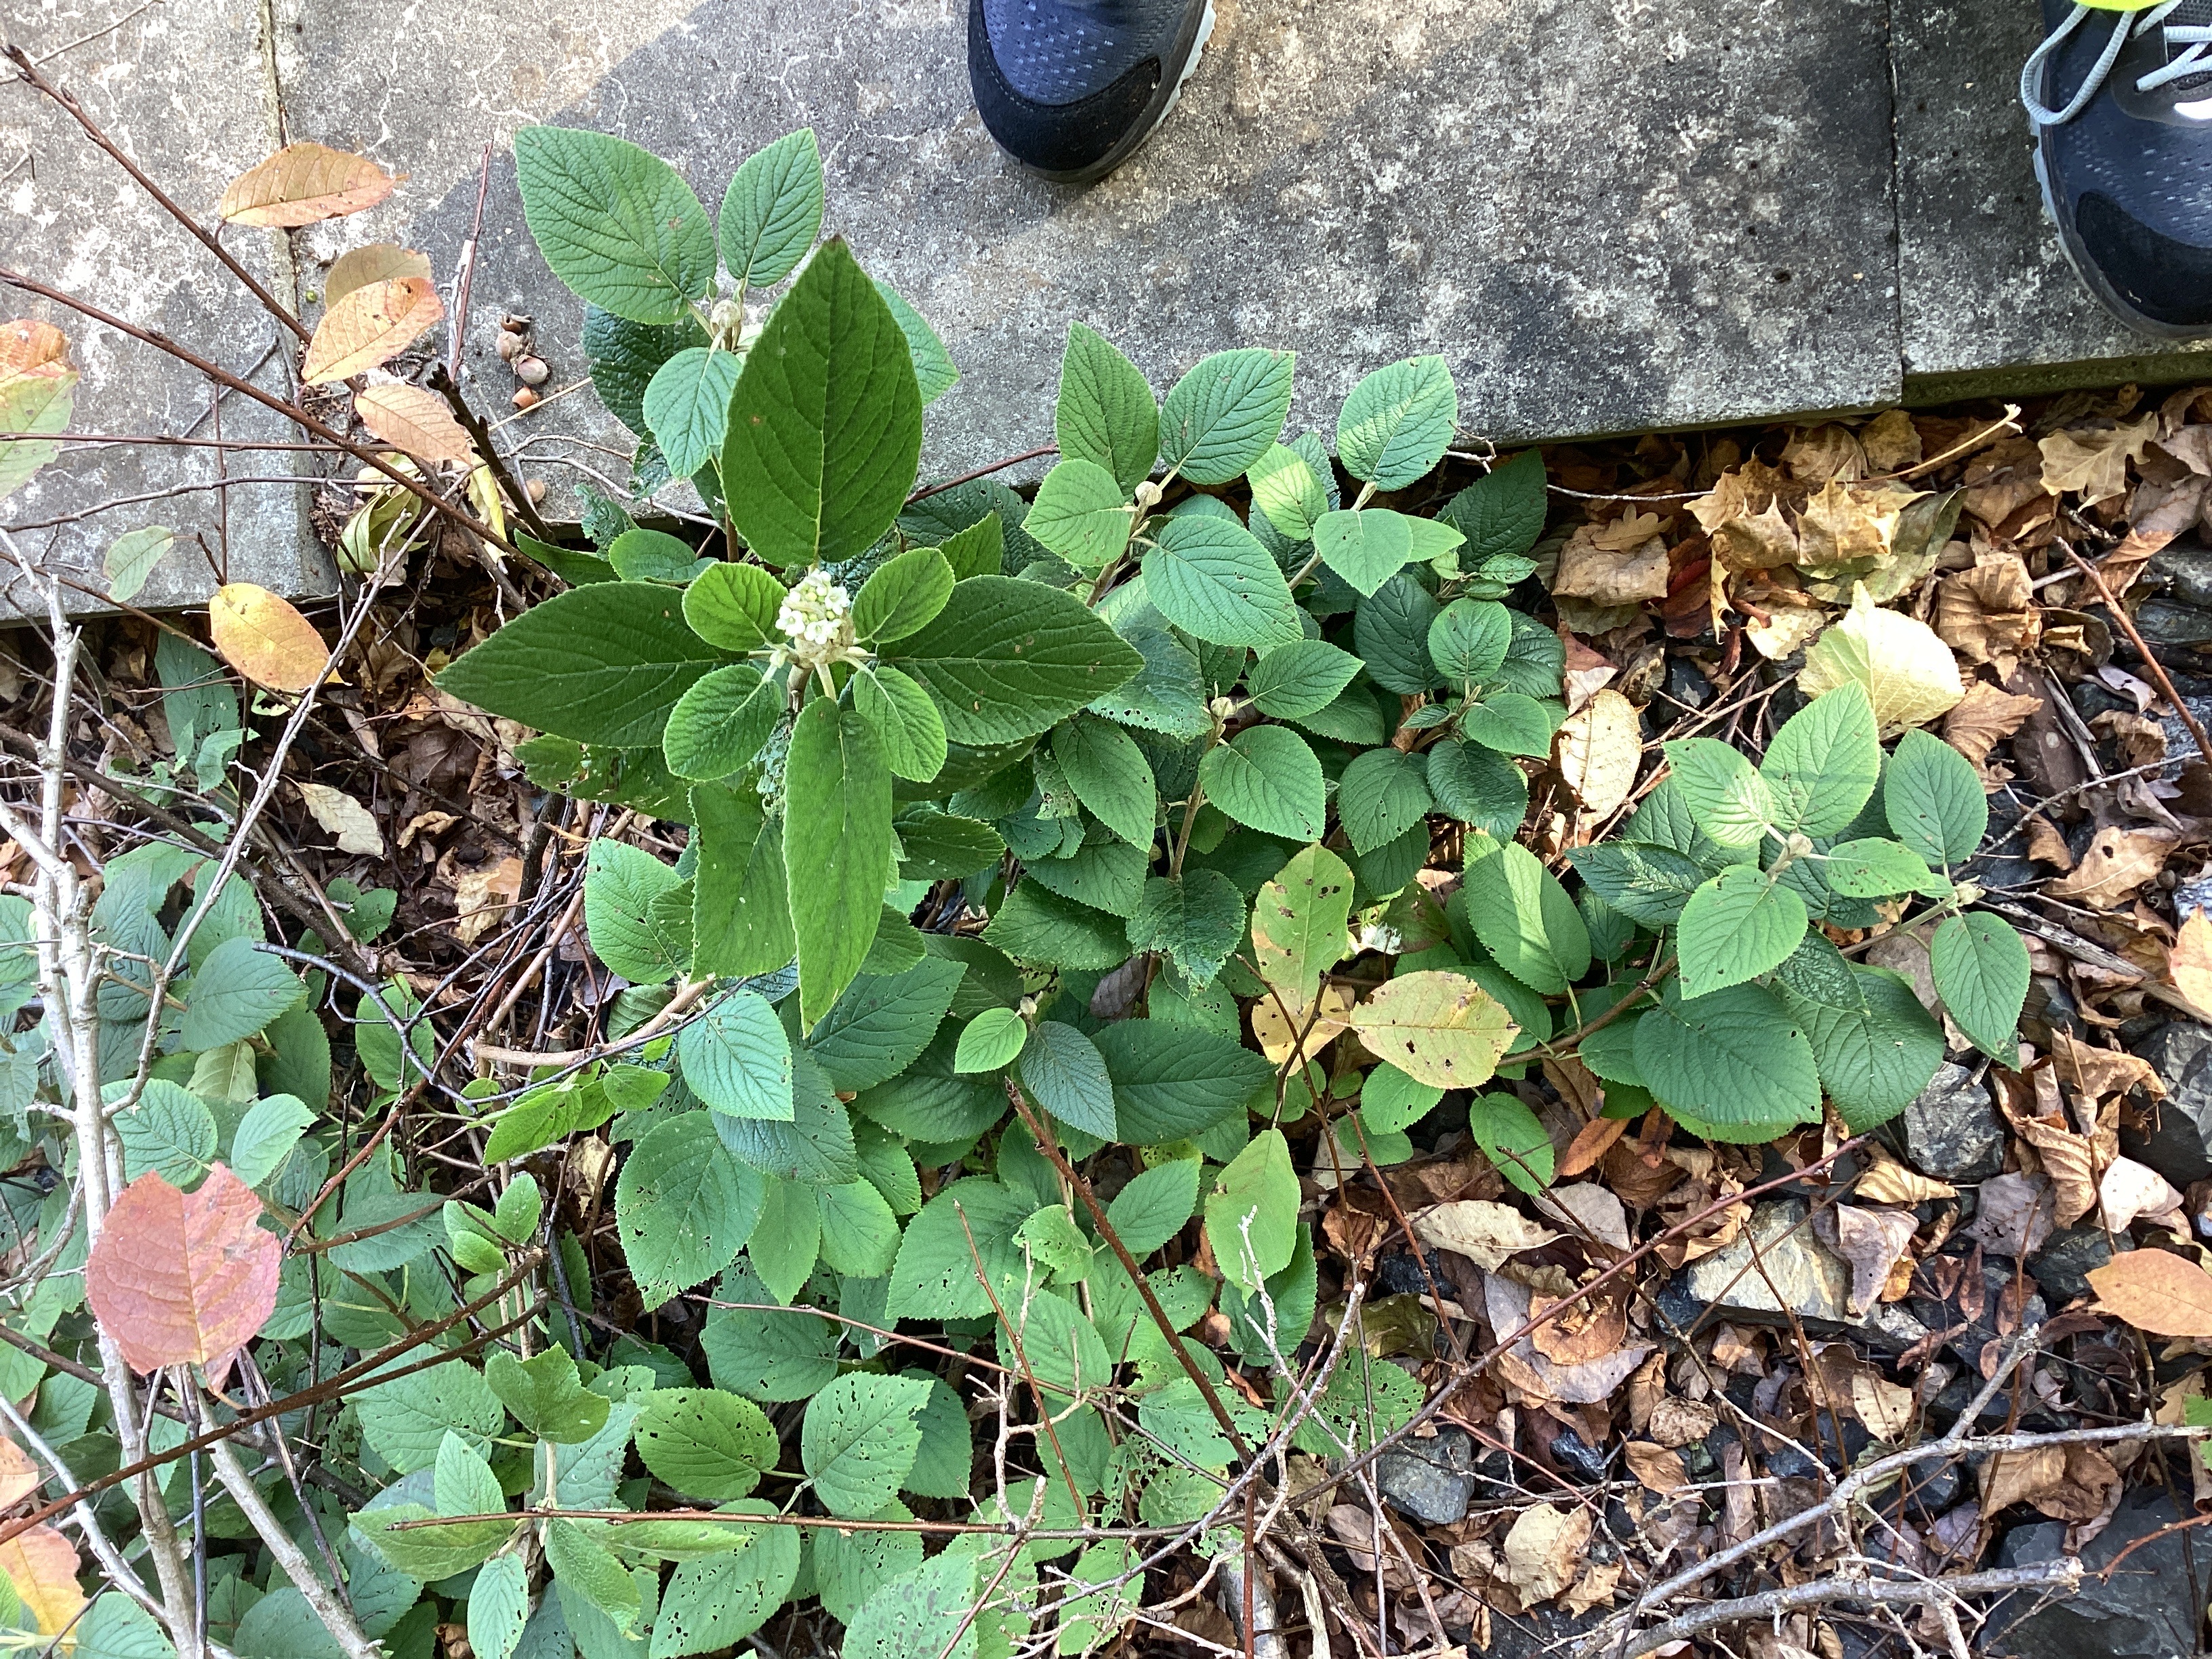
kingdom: Plantae
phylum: Tracheophyta
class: Magnoliopsida
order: Dipsacales
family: Viburnaceae
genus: Viburnum
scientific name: Viburnum lantana
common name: filtkorsved
